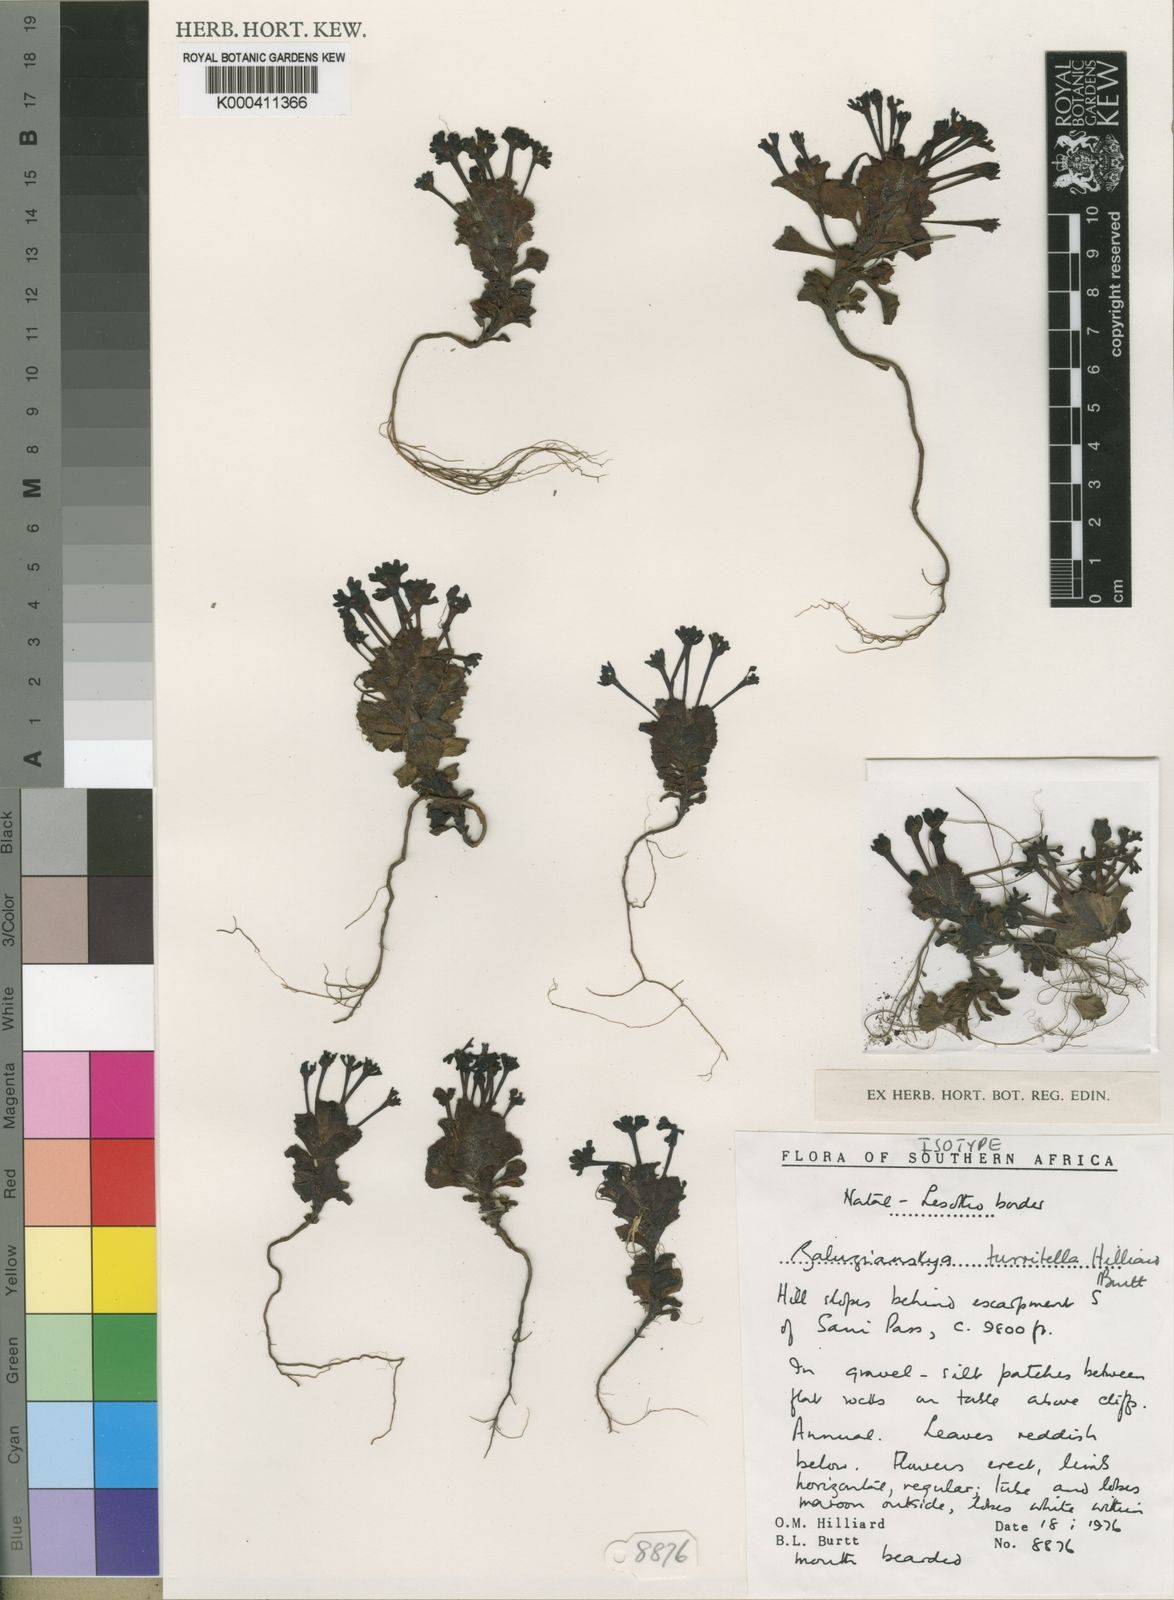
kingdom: Plantae
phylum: Tracheophyta
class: Magnoliopsida
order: Lamiales
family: Scrophulariaceae
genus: Zaluzianskya
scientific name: Zaluzianskya turritella
